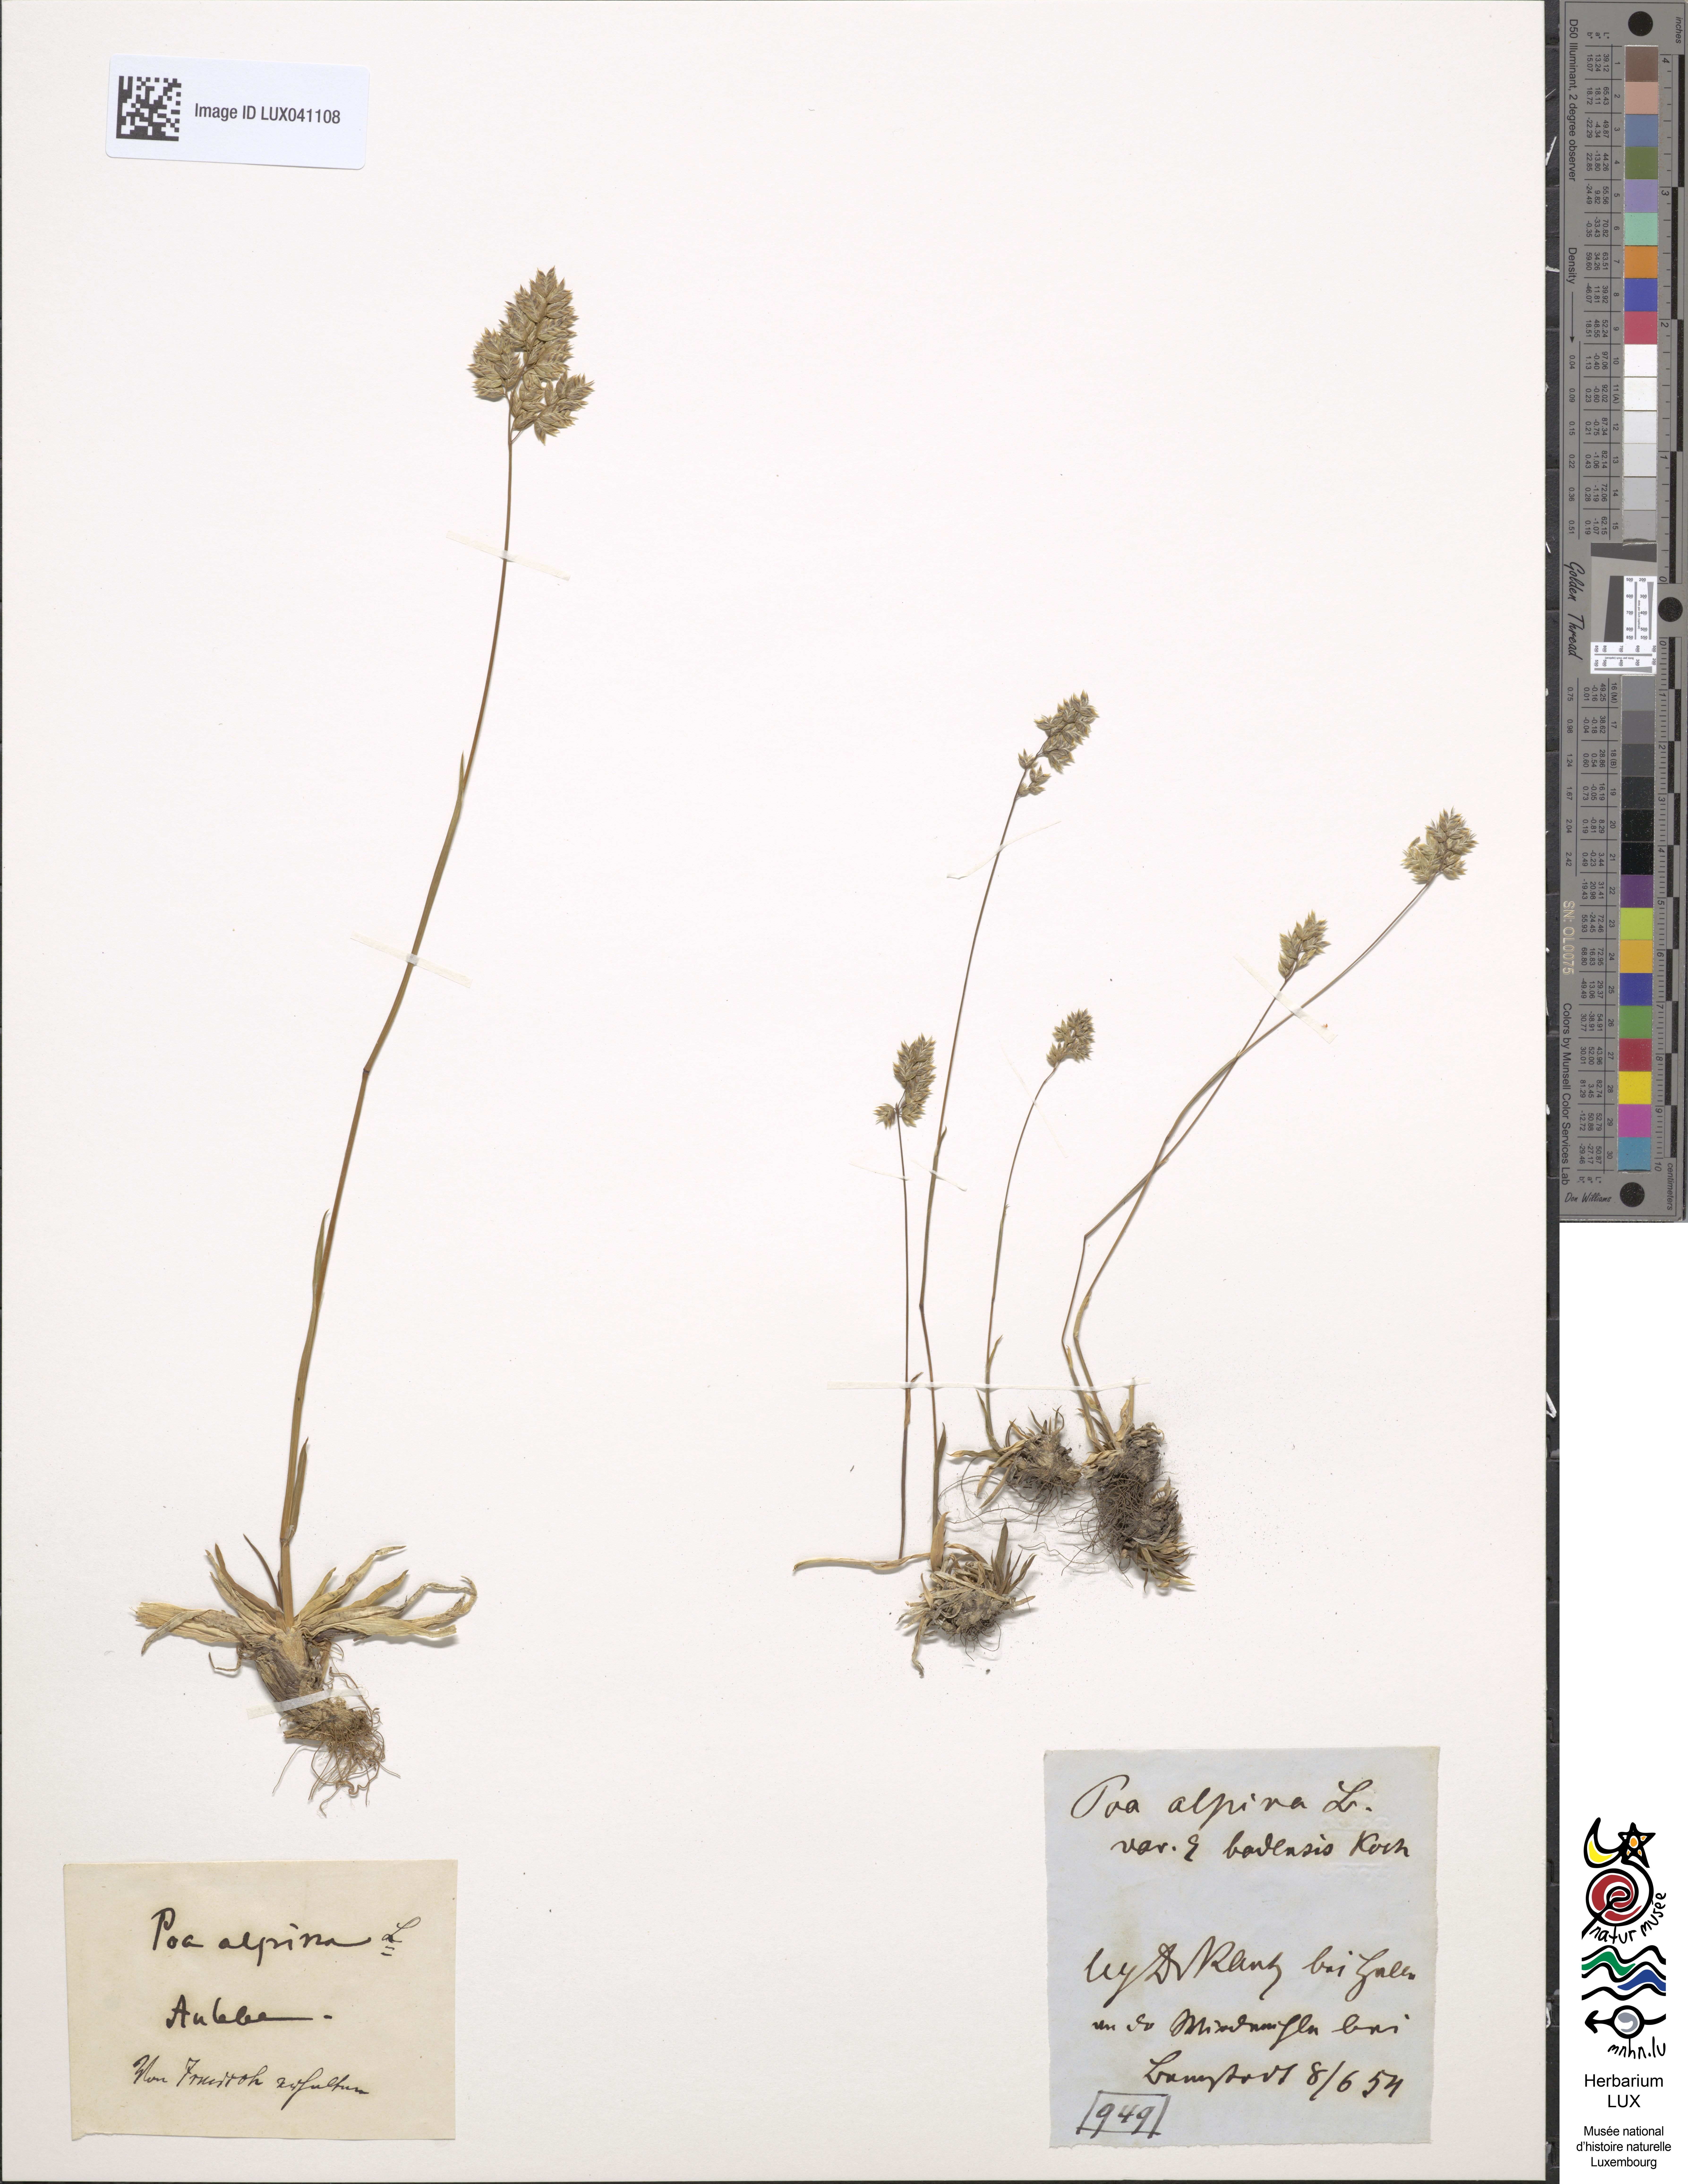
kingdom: Plantae
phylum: Tracheophyta
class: Liliopsida
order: Poales
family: Poaceae
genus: Poa
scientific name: Poa badensis
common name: Baden's bluegrass
